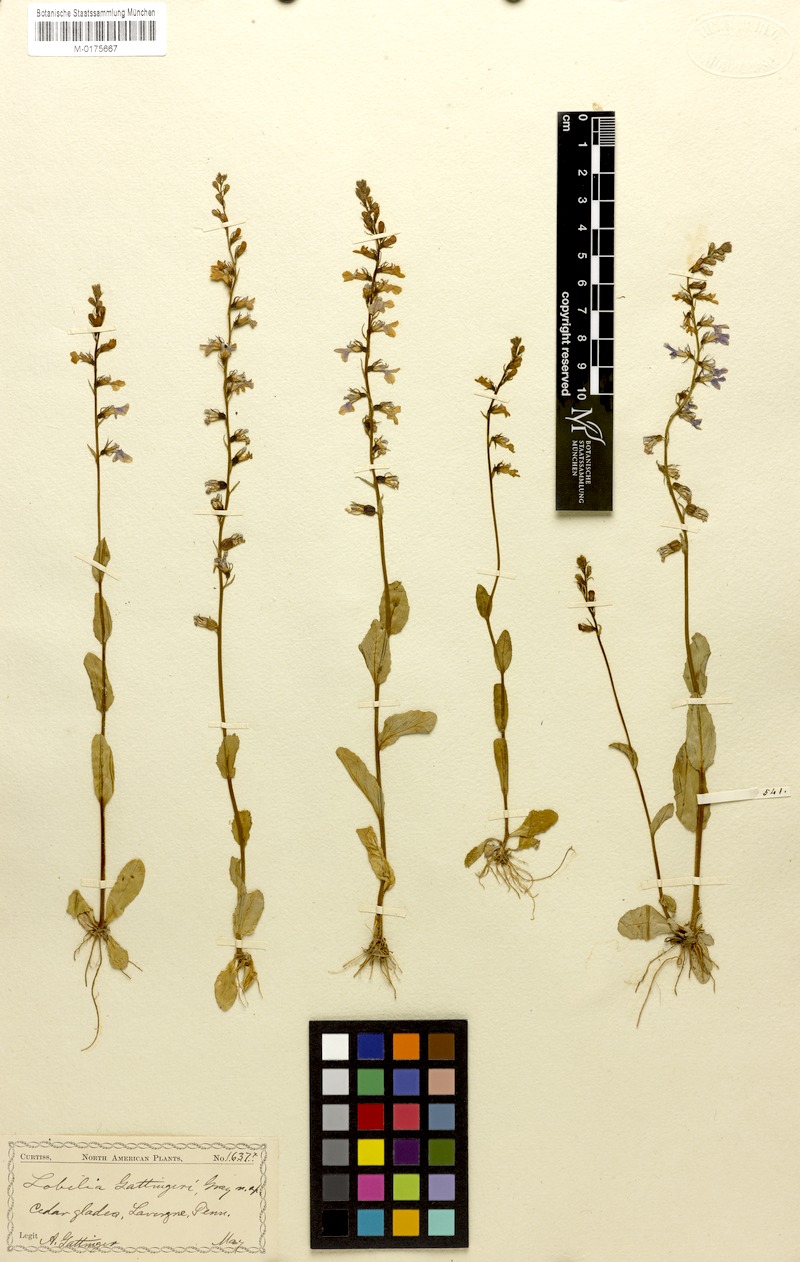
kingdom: Plantae
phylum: Tracheophyta
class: Magnoliopsida
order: Asterales
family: Campanulaceae
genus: Lobelia
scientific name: Lobelia gattingeri
